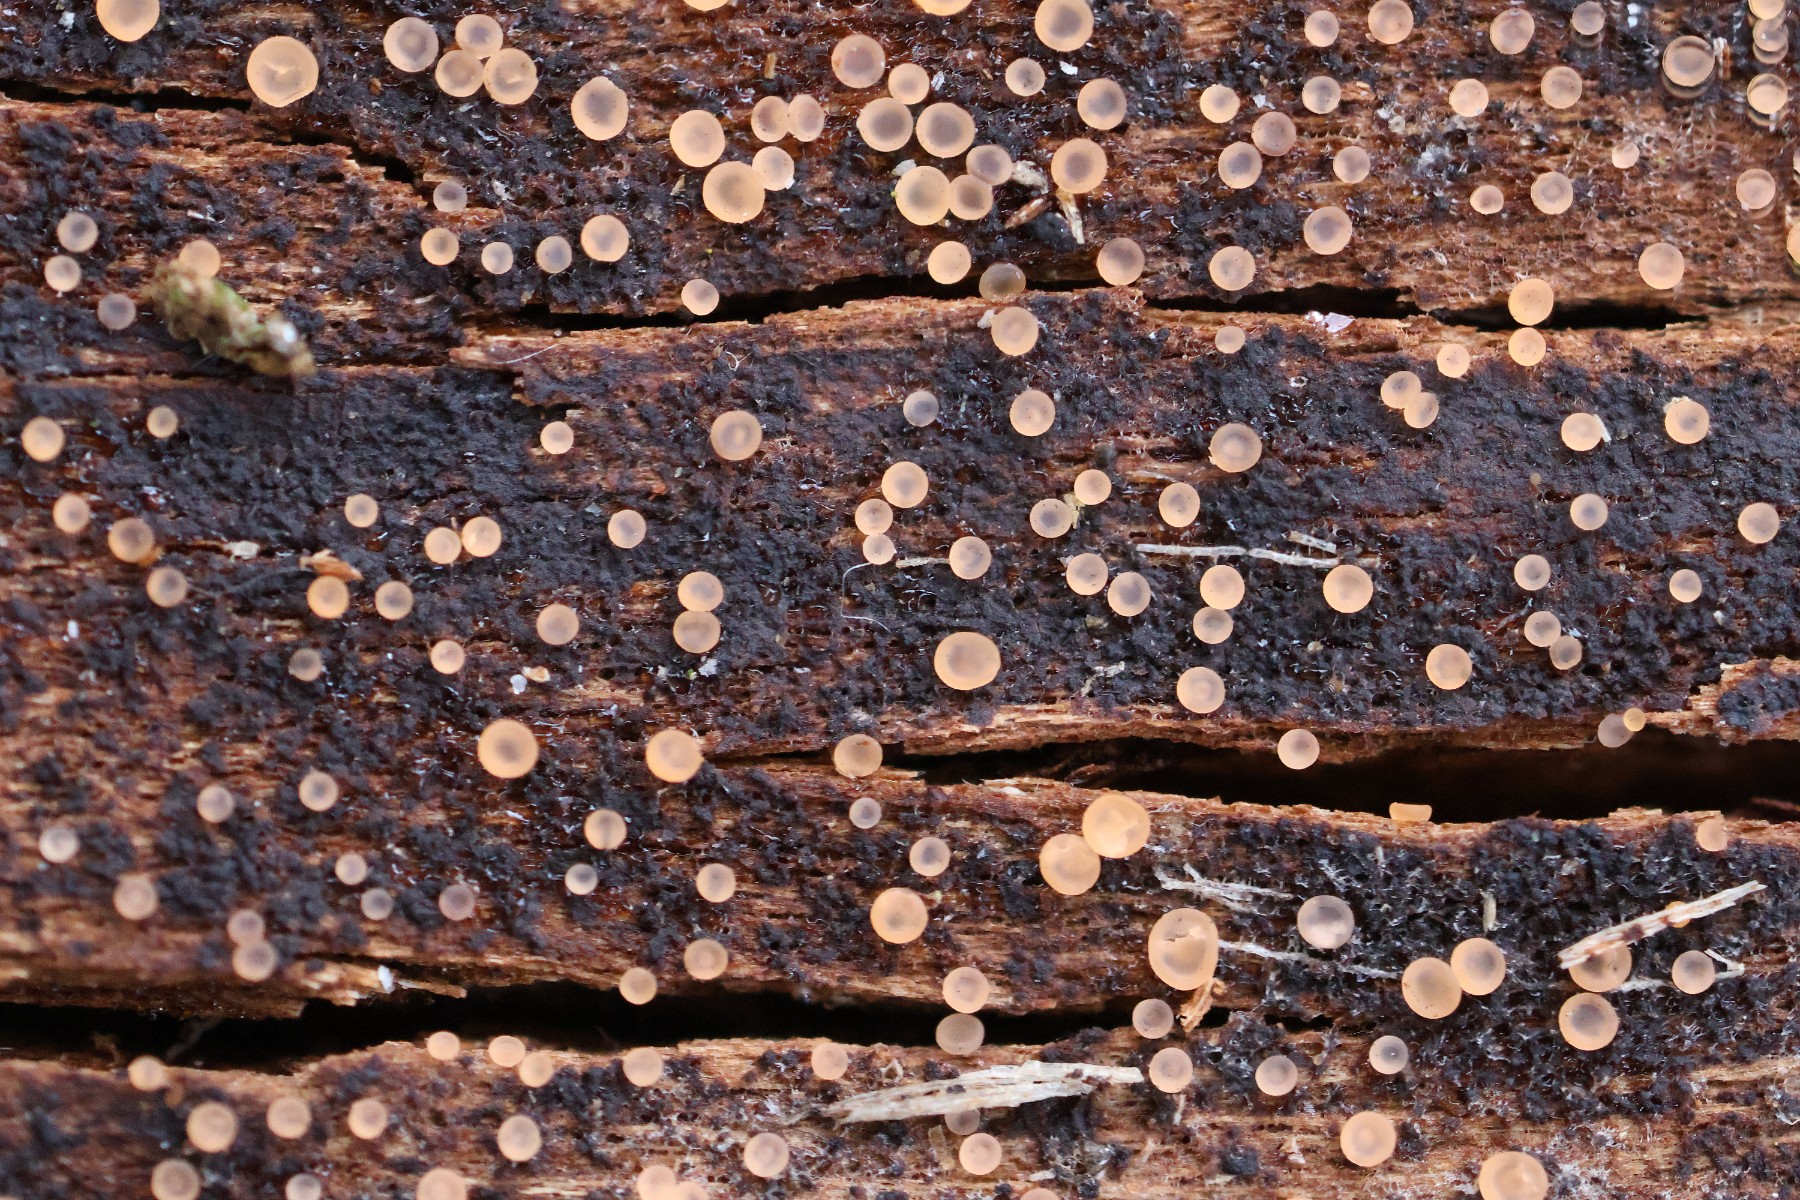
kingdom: Fungi
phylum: Ascomycota
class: Orbiliomycetes
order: Orbiliales
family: Orbiliaceae
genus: Orbilia
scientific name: Orbilia
